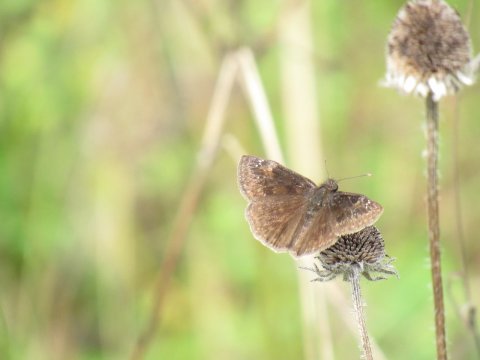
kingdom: Animalia
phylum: Arthropoda
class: Insecta
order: Lepidoptera
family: Hesperiidae
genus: Gesta
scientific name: Gesta
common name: Wild Indigo Duskywing
